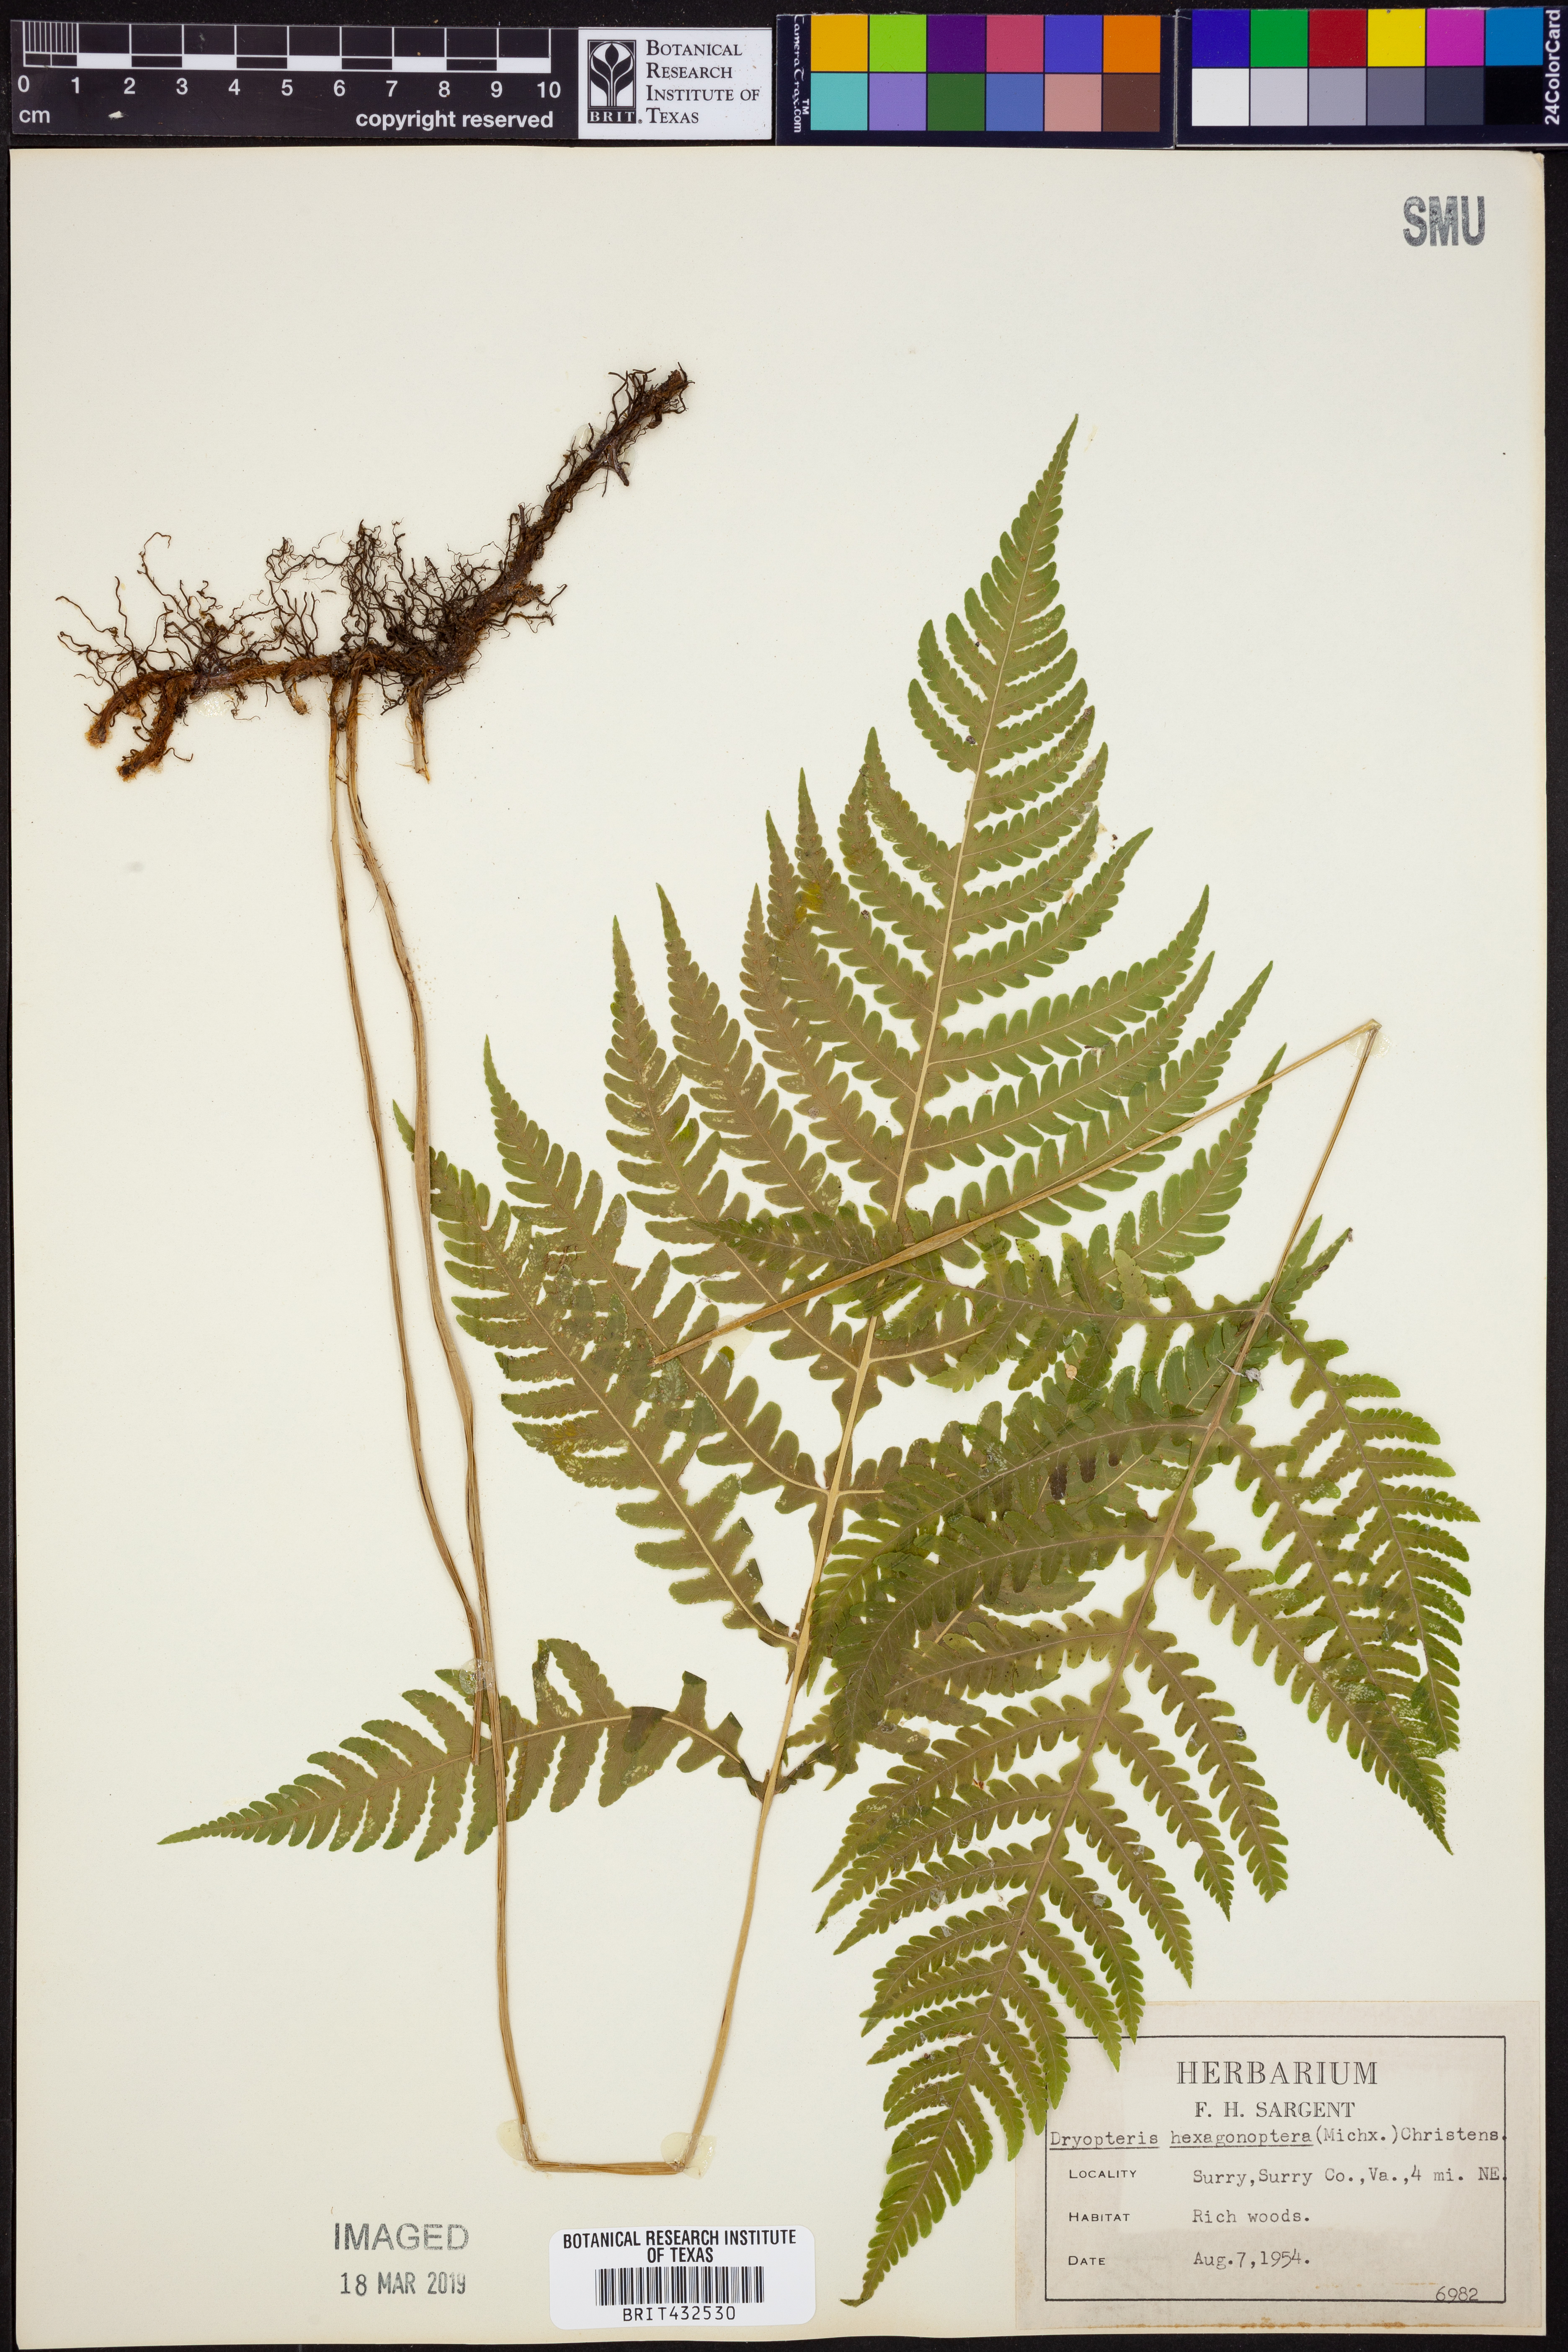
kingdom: Plantae
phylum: Tracheophyta
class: Polypodiopsida
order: Polypodiales
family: Dryopteridaceae
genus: Dryopteris
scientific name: Dryopteris hexagonaptera
